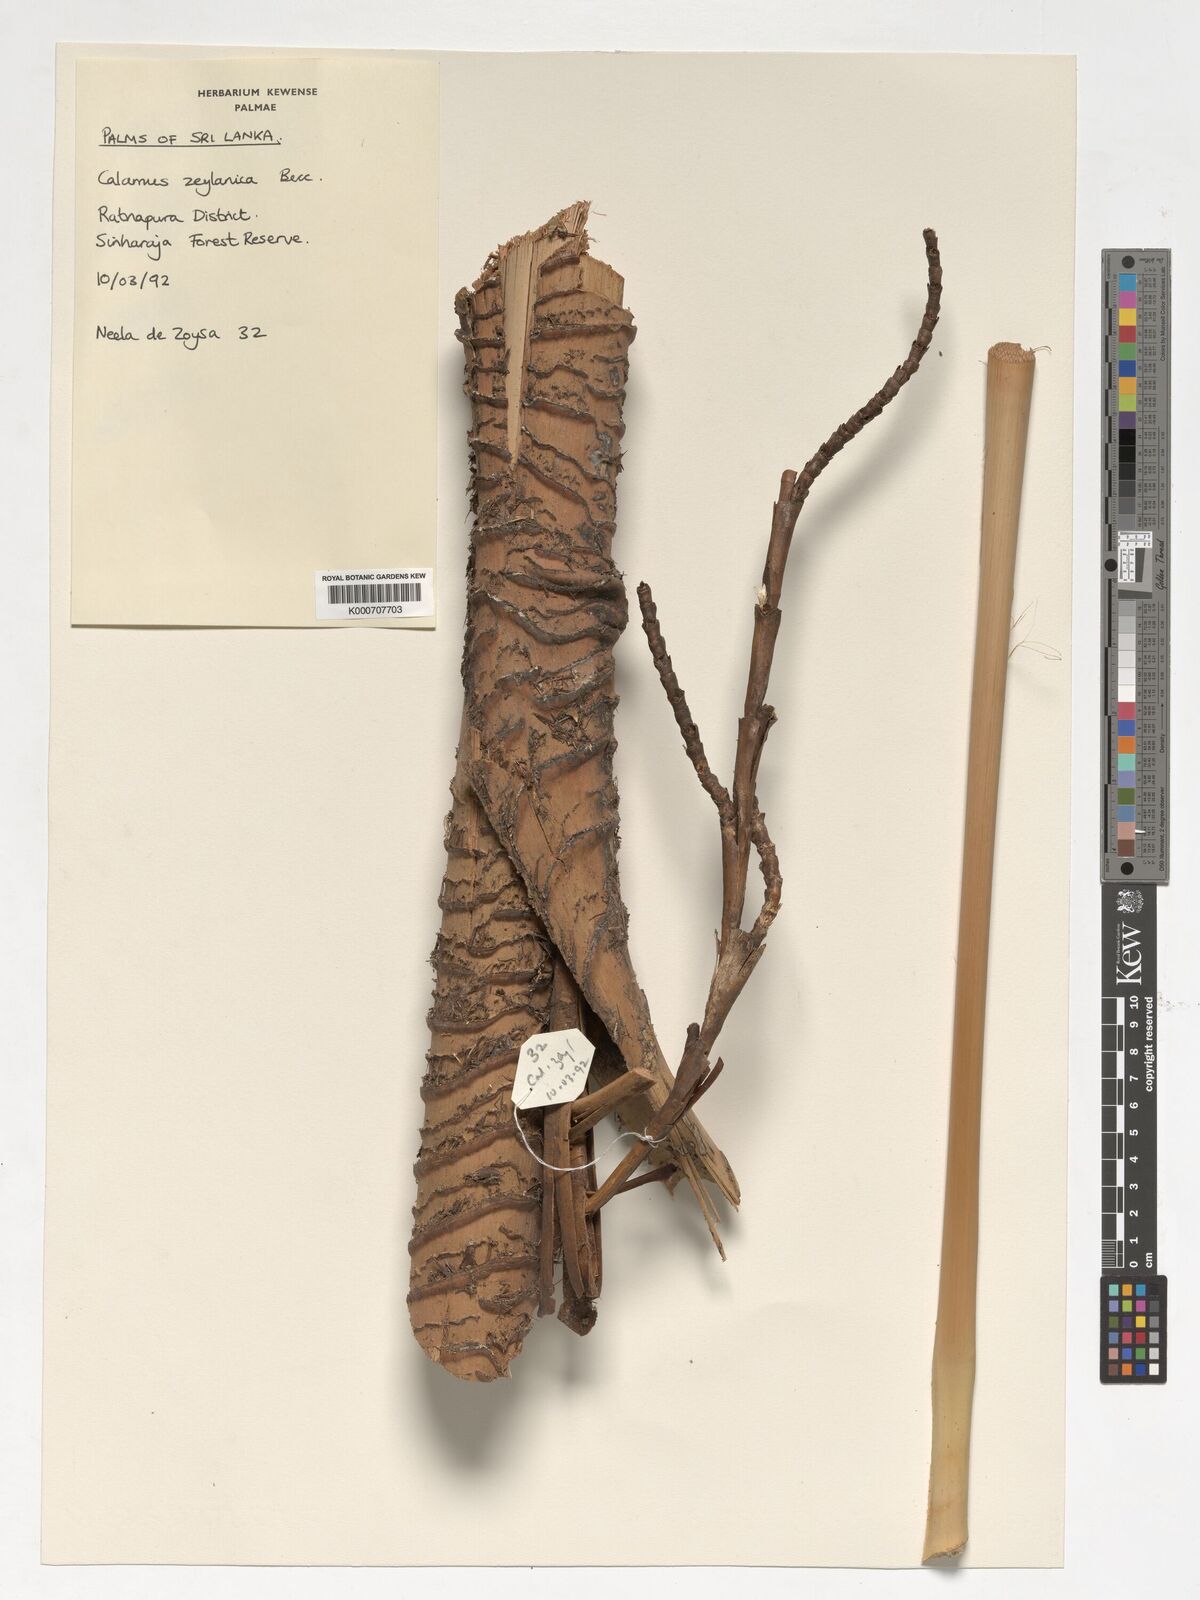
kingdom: Plantae
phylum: Tracheophyta
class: Liliopsida
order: Arecales
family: Arecaceae
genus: Calamus
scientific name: Calamus zeylanicus
